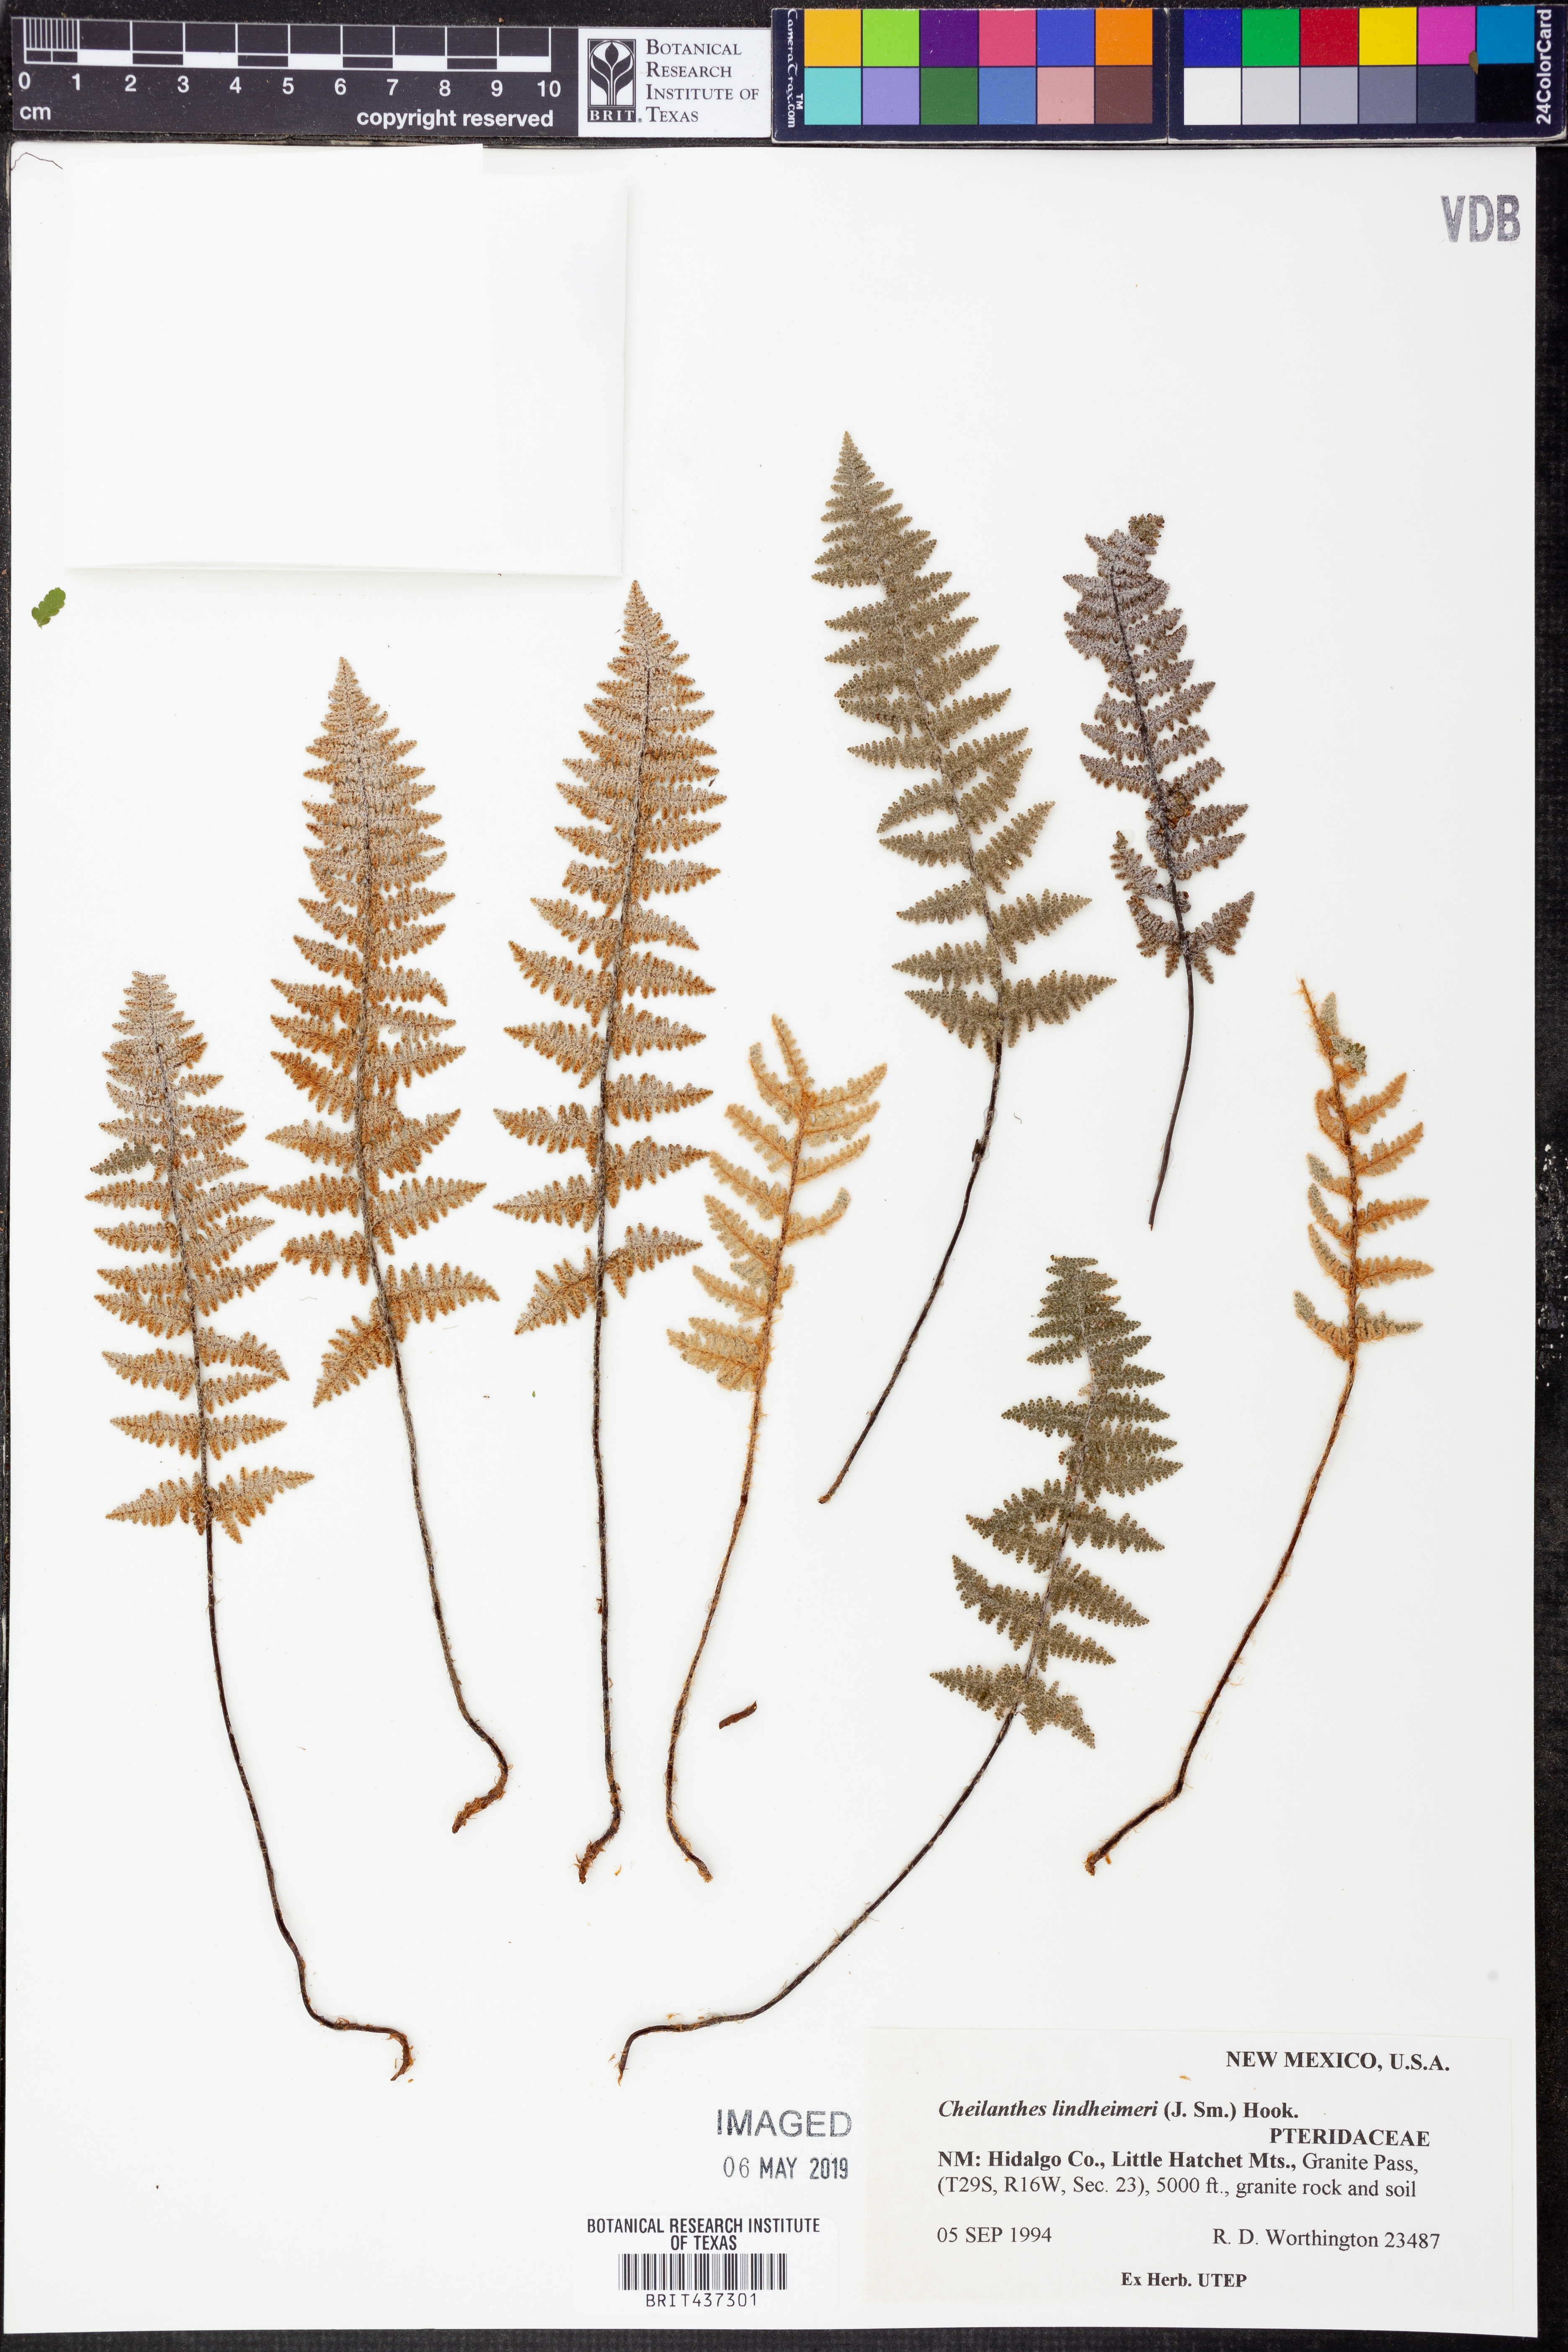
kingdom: Plantae
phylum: Tracheophyta
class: Polypodiopsida
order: Polypodiales
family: Pteridaceae
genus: Myriopteris
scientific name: Myriopteris lindheimeri
